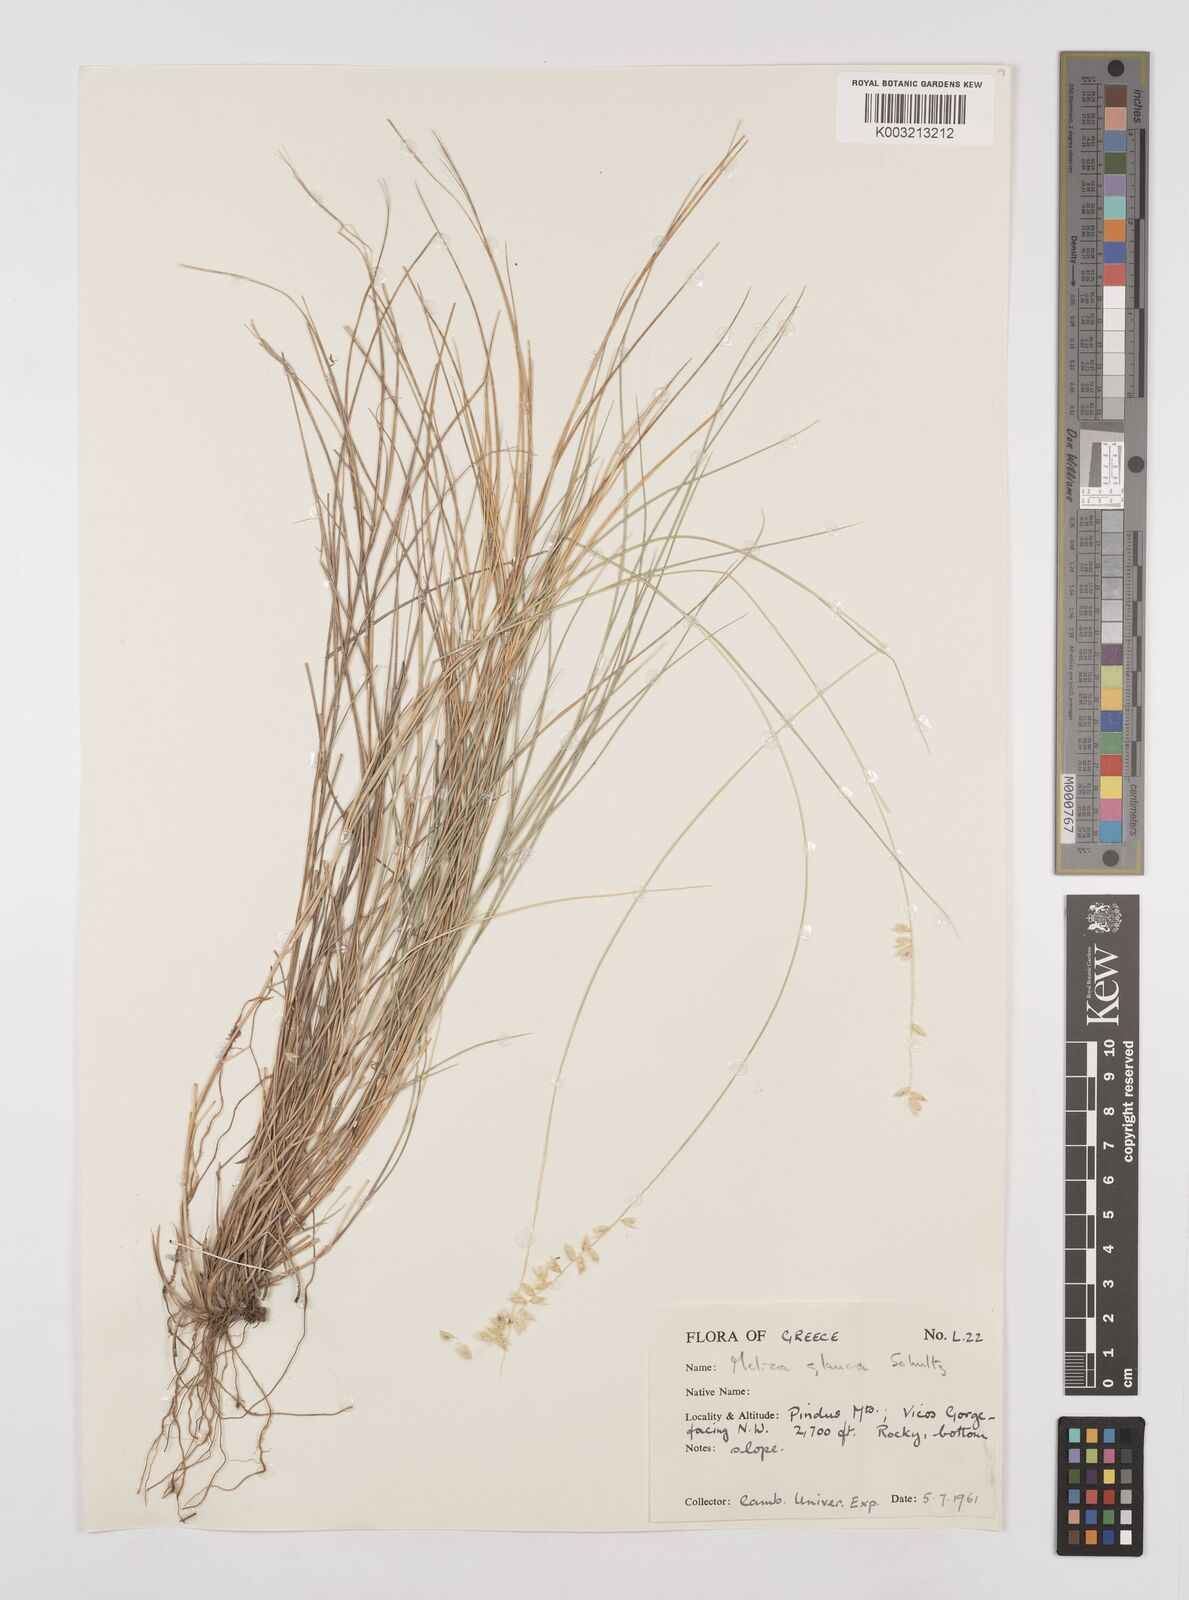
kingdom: Plantae
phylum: Tracheophyta
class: Liliopsida
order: Poales
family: Poaceae
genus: Melica
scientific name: Melica ciliata
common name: Hairy melicgrass
